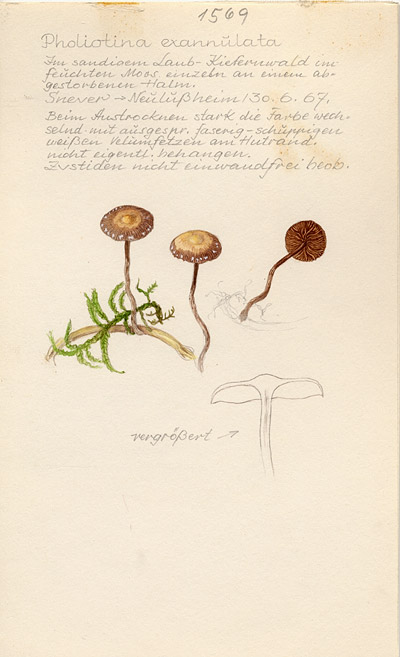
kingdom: Fungi
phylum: Basidiomycota
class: Agaricomycetes
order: Agaricales
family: Bolbitiaceae
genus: Conocybe
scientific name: Conocybe exannulata
